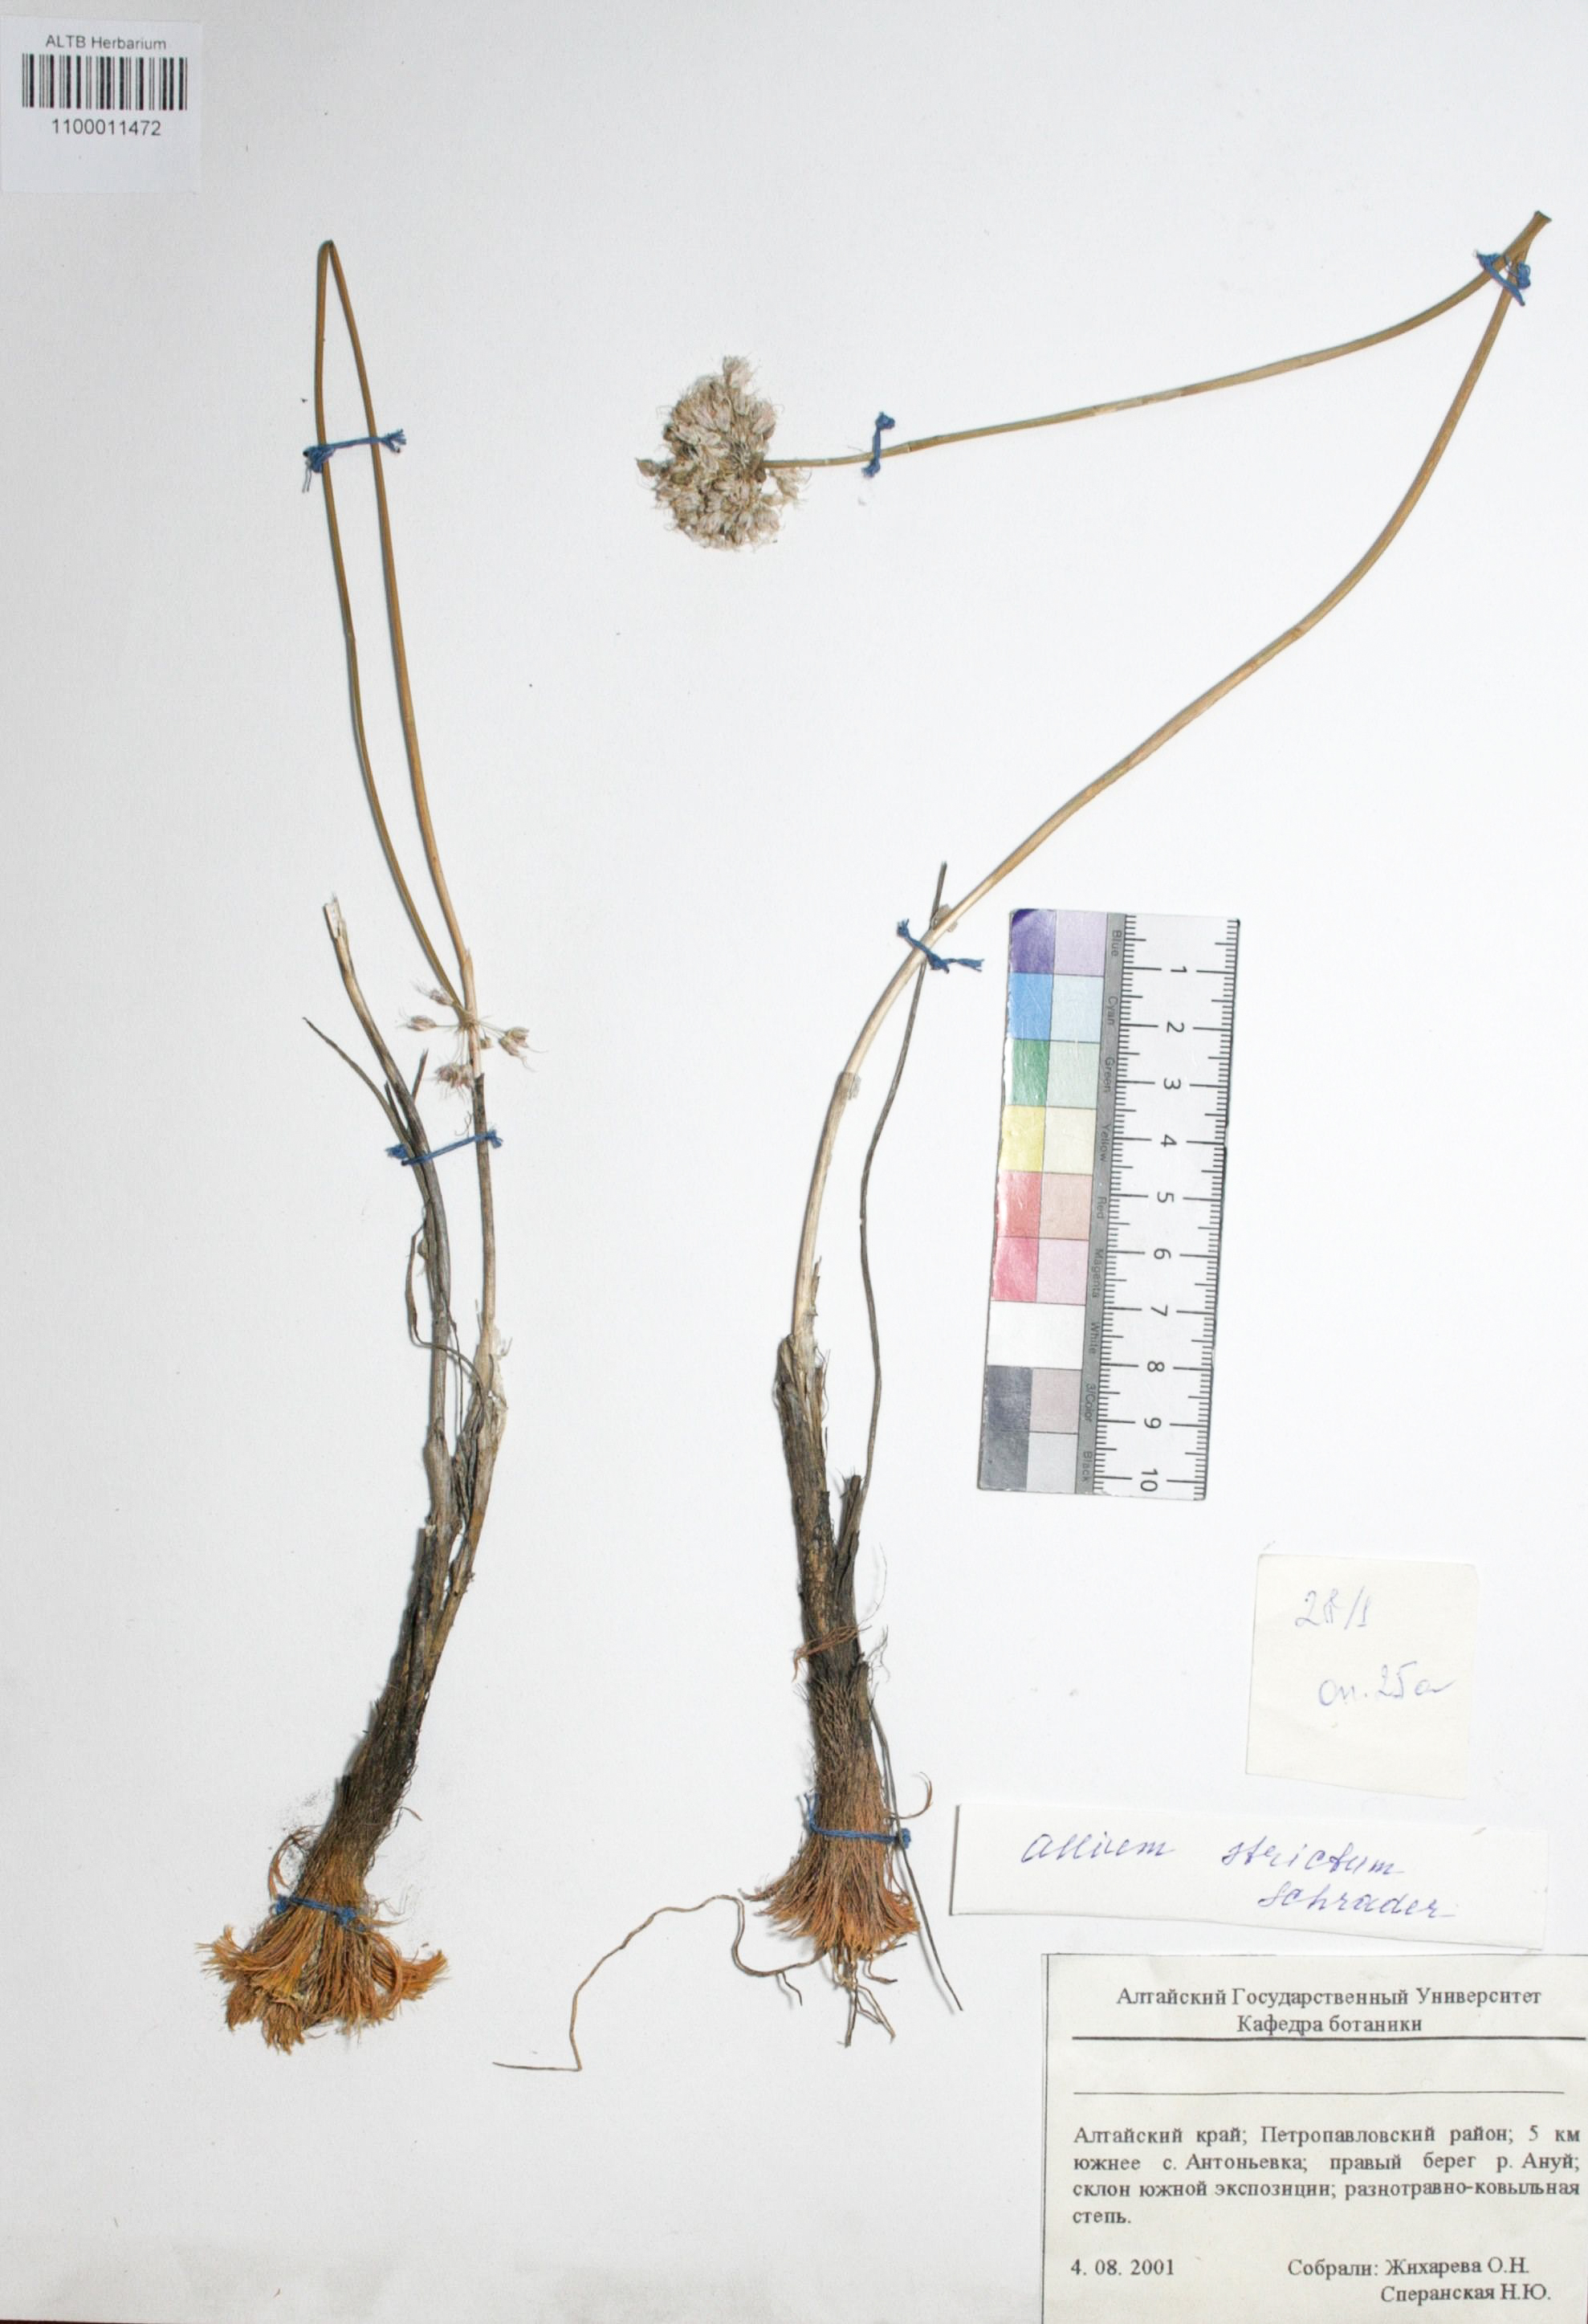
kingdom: Plantae
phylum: Tracheophyta
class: Liliopsida
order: Asparagales
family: Amaryllidaceae
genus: Allium
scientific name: Allium strictum
